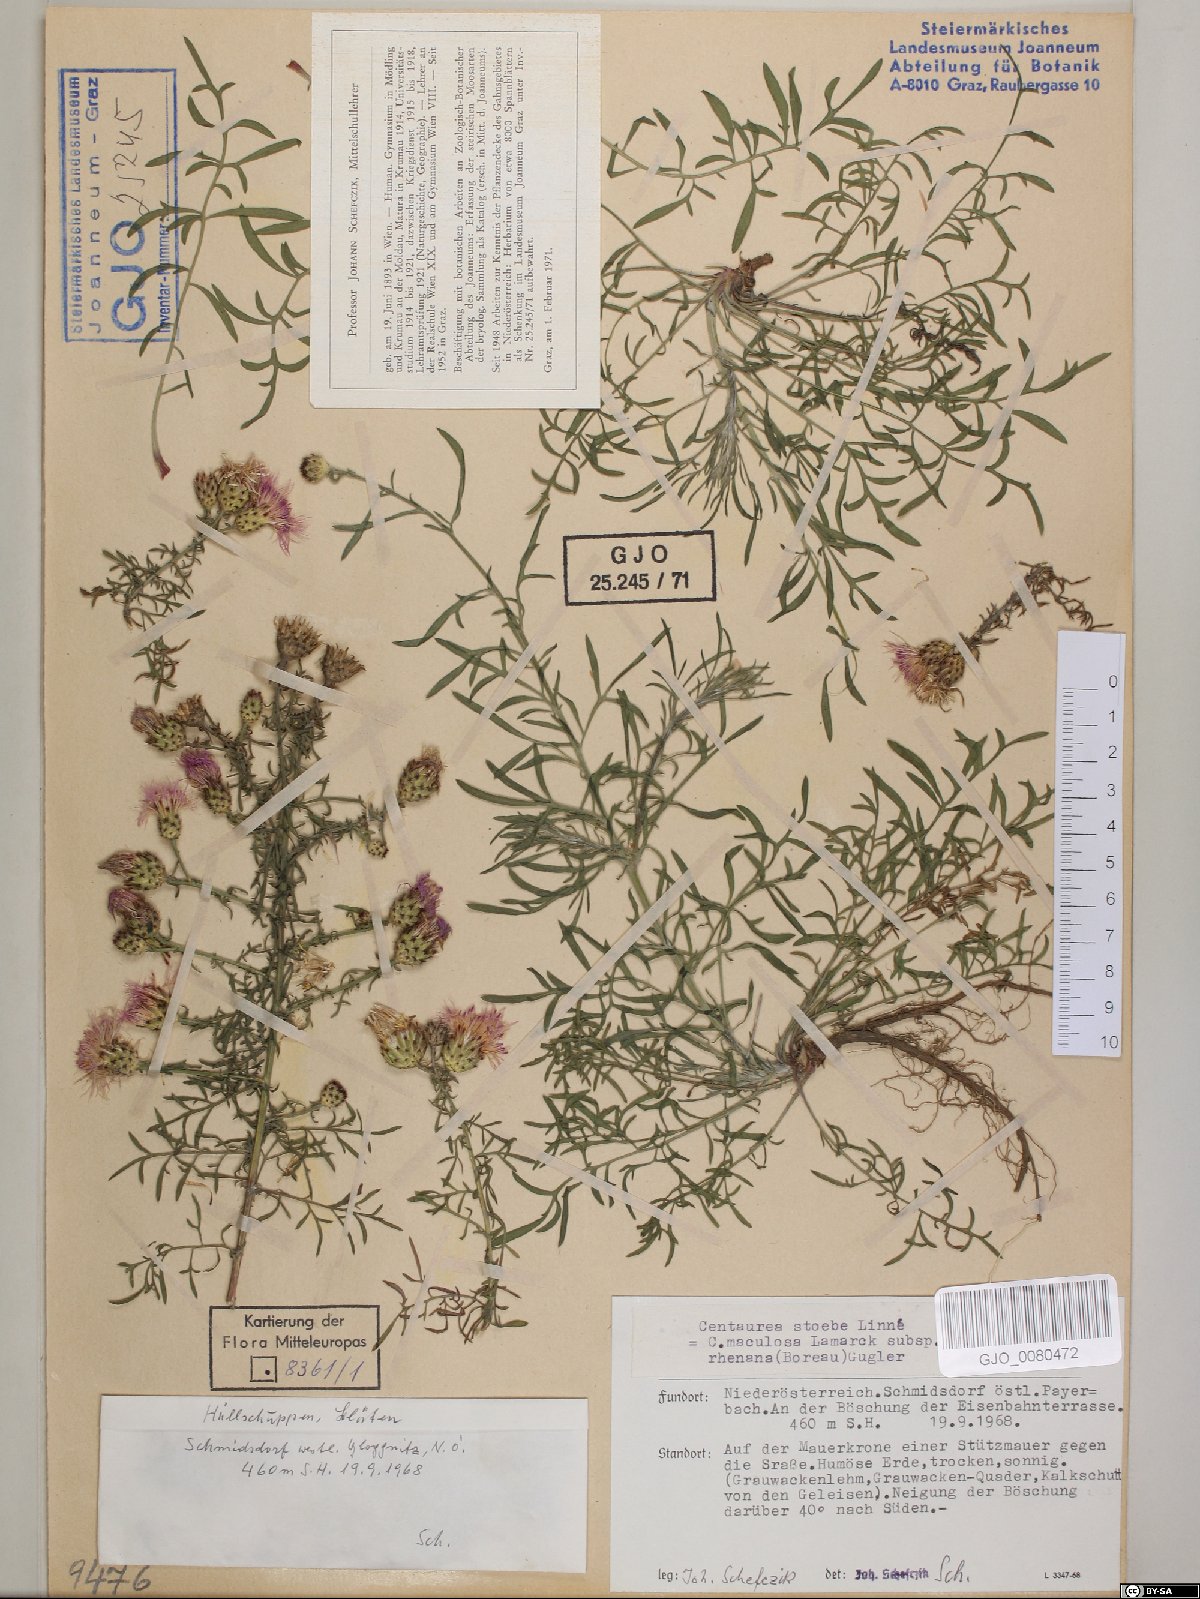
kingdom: Plantae
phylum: Tracheophyta
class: Magnoliopsida
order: Asterales
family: Asteraceae
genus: Centaurea
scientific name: Centaurea stoebe
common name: Spotted knapweed
